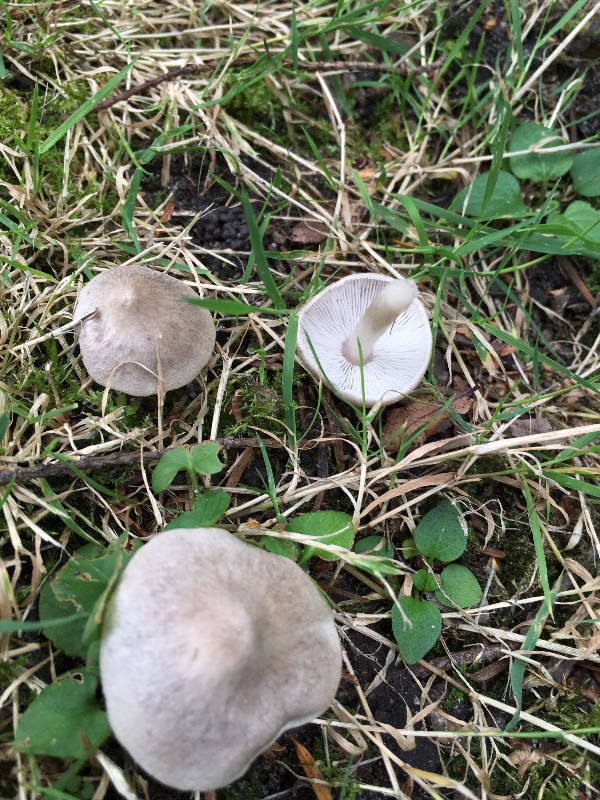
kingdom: Fungi
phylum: Basidiomycota
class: Agaricomycetes
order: Agaricales
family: Tricholomataceae
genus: Tricholoma
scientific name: Tricholoma argyraceum
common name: spids ridderhat
